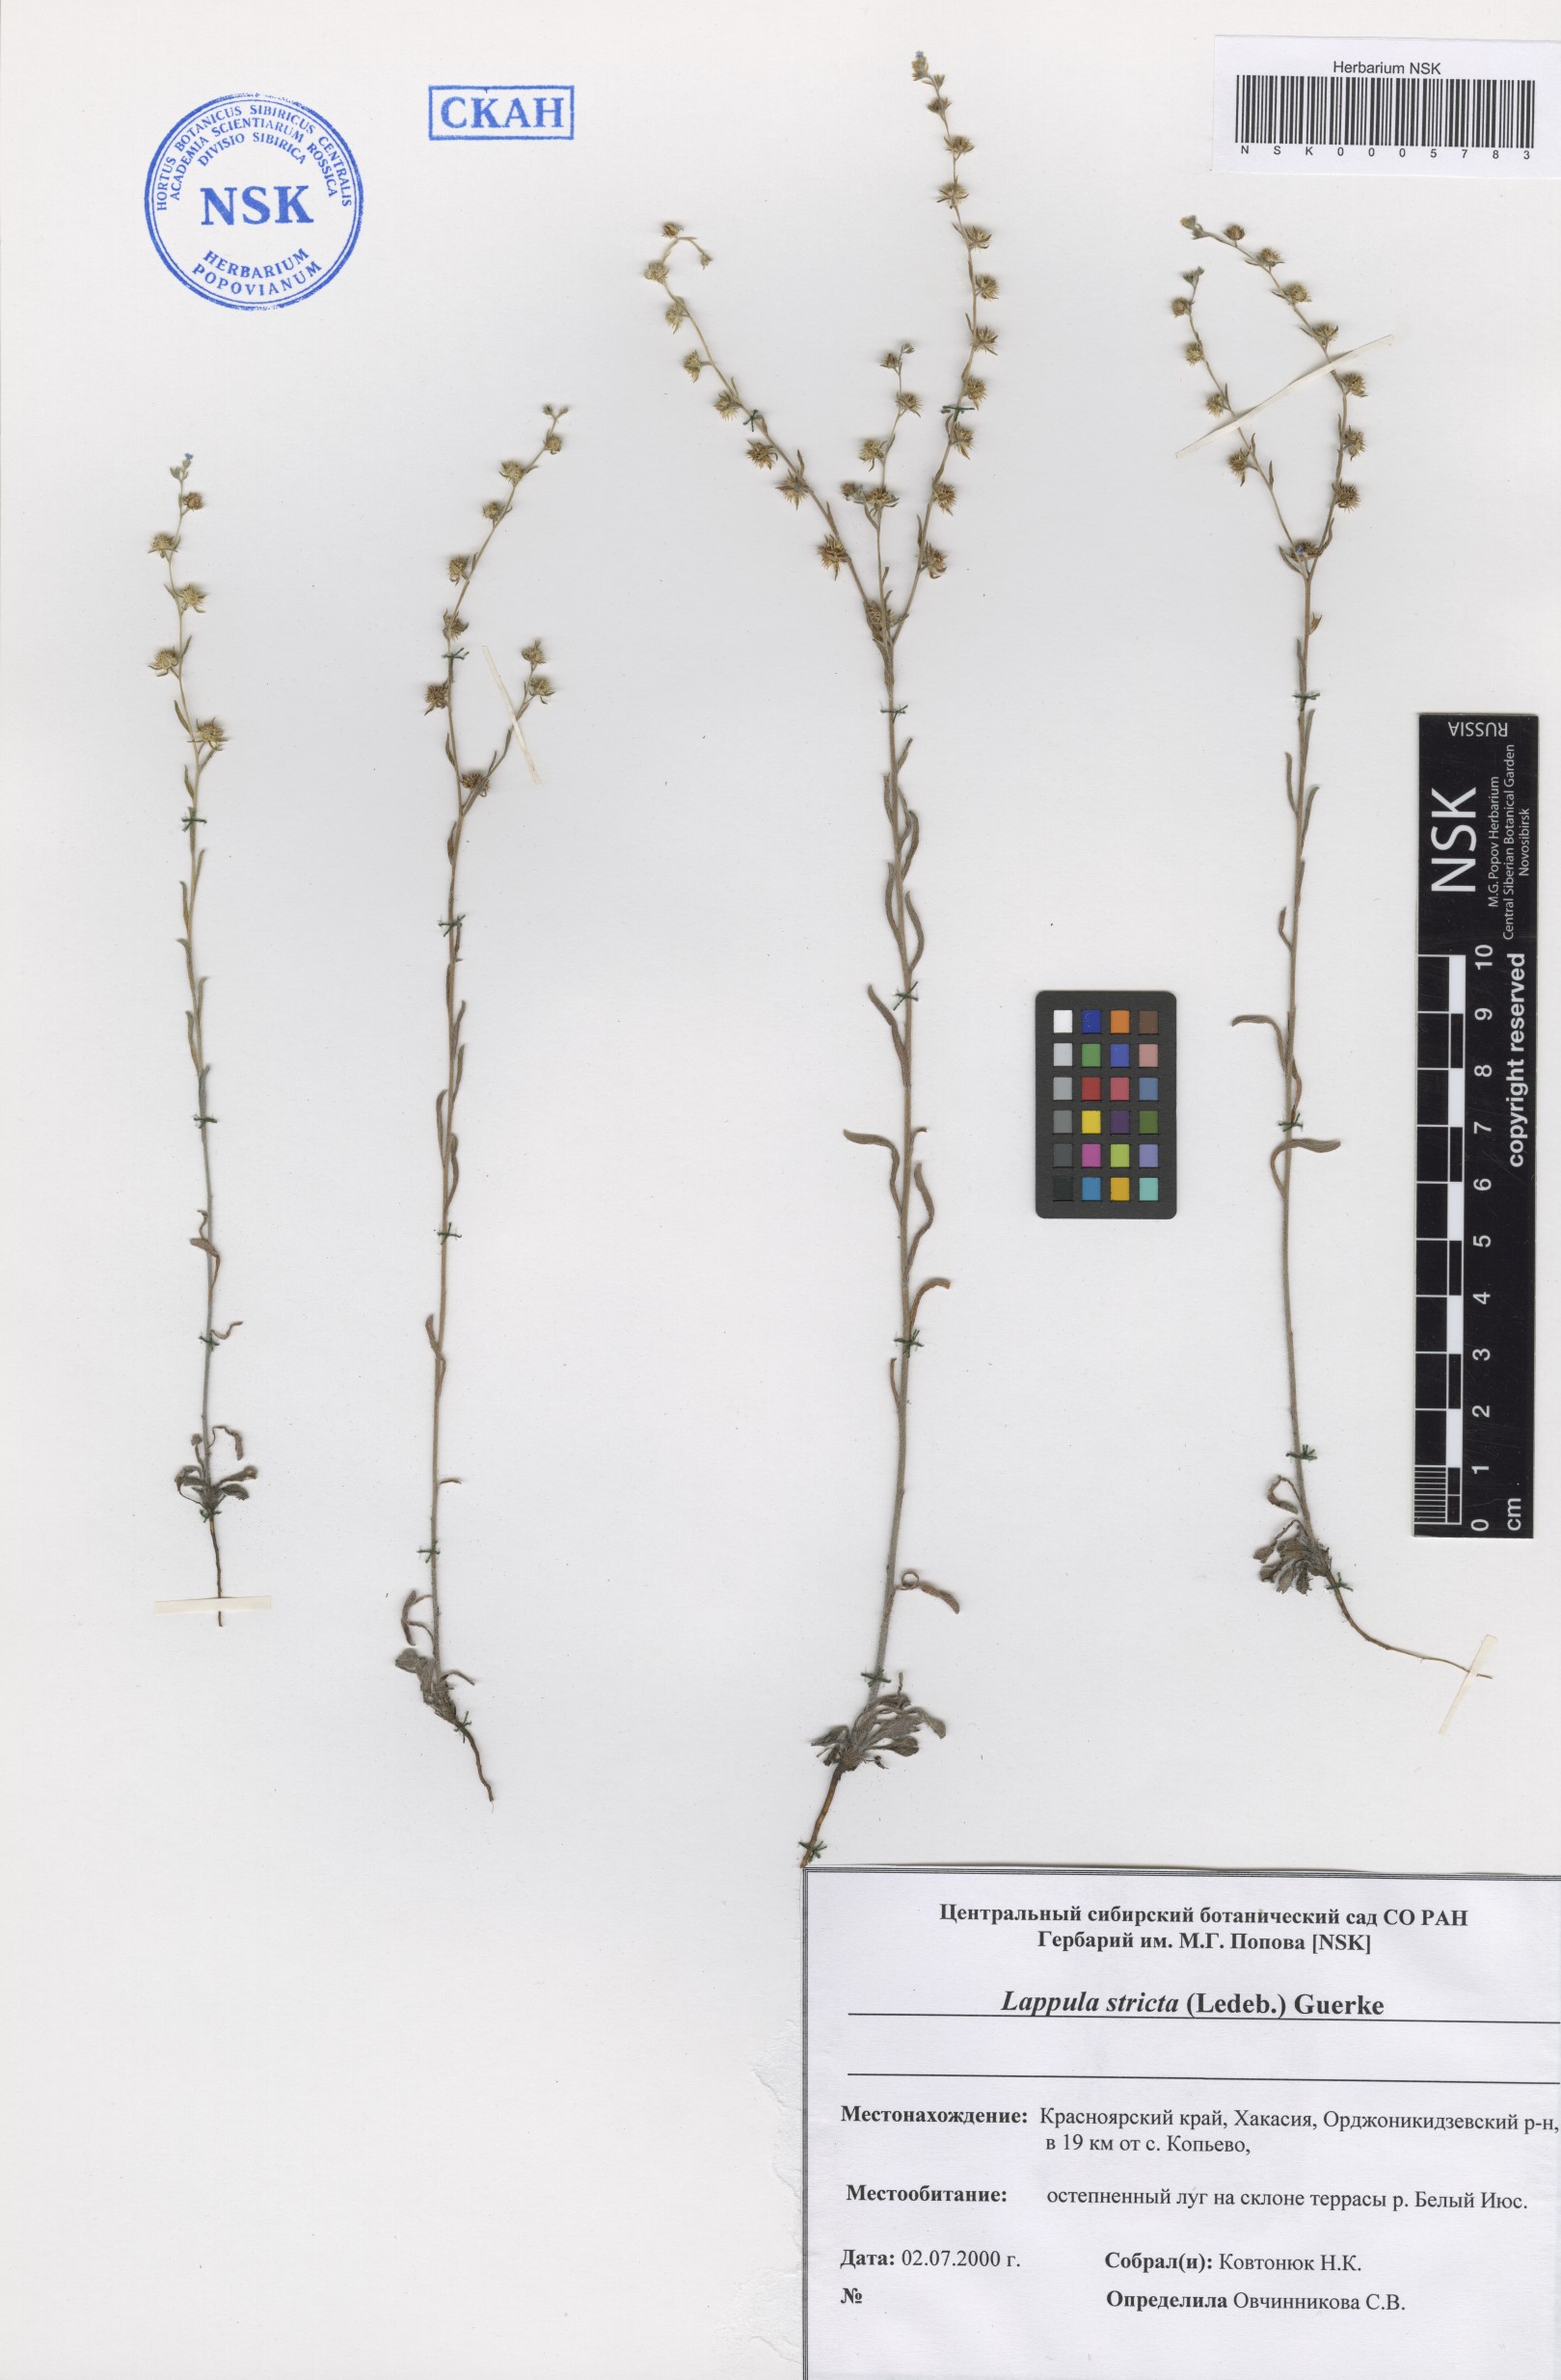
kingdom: Plantae
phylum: Tracheophyta
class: Magnoliopsida
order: Boraginales
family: Boraginaceae
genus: Lappula
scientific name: Lappula stricta
